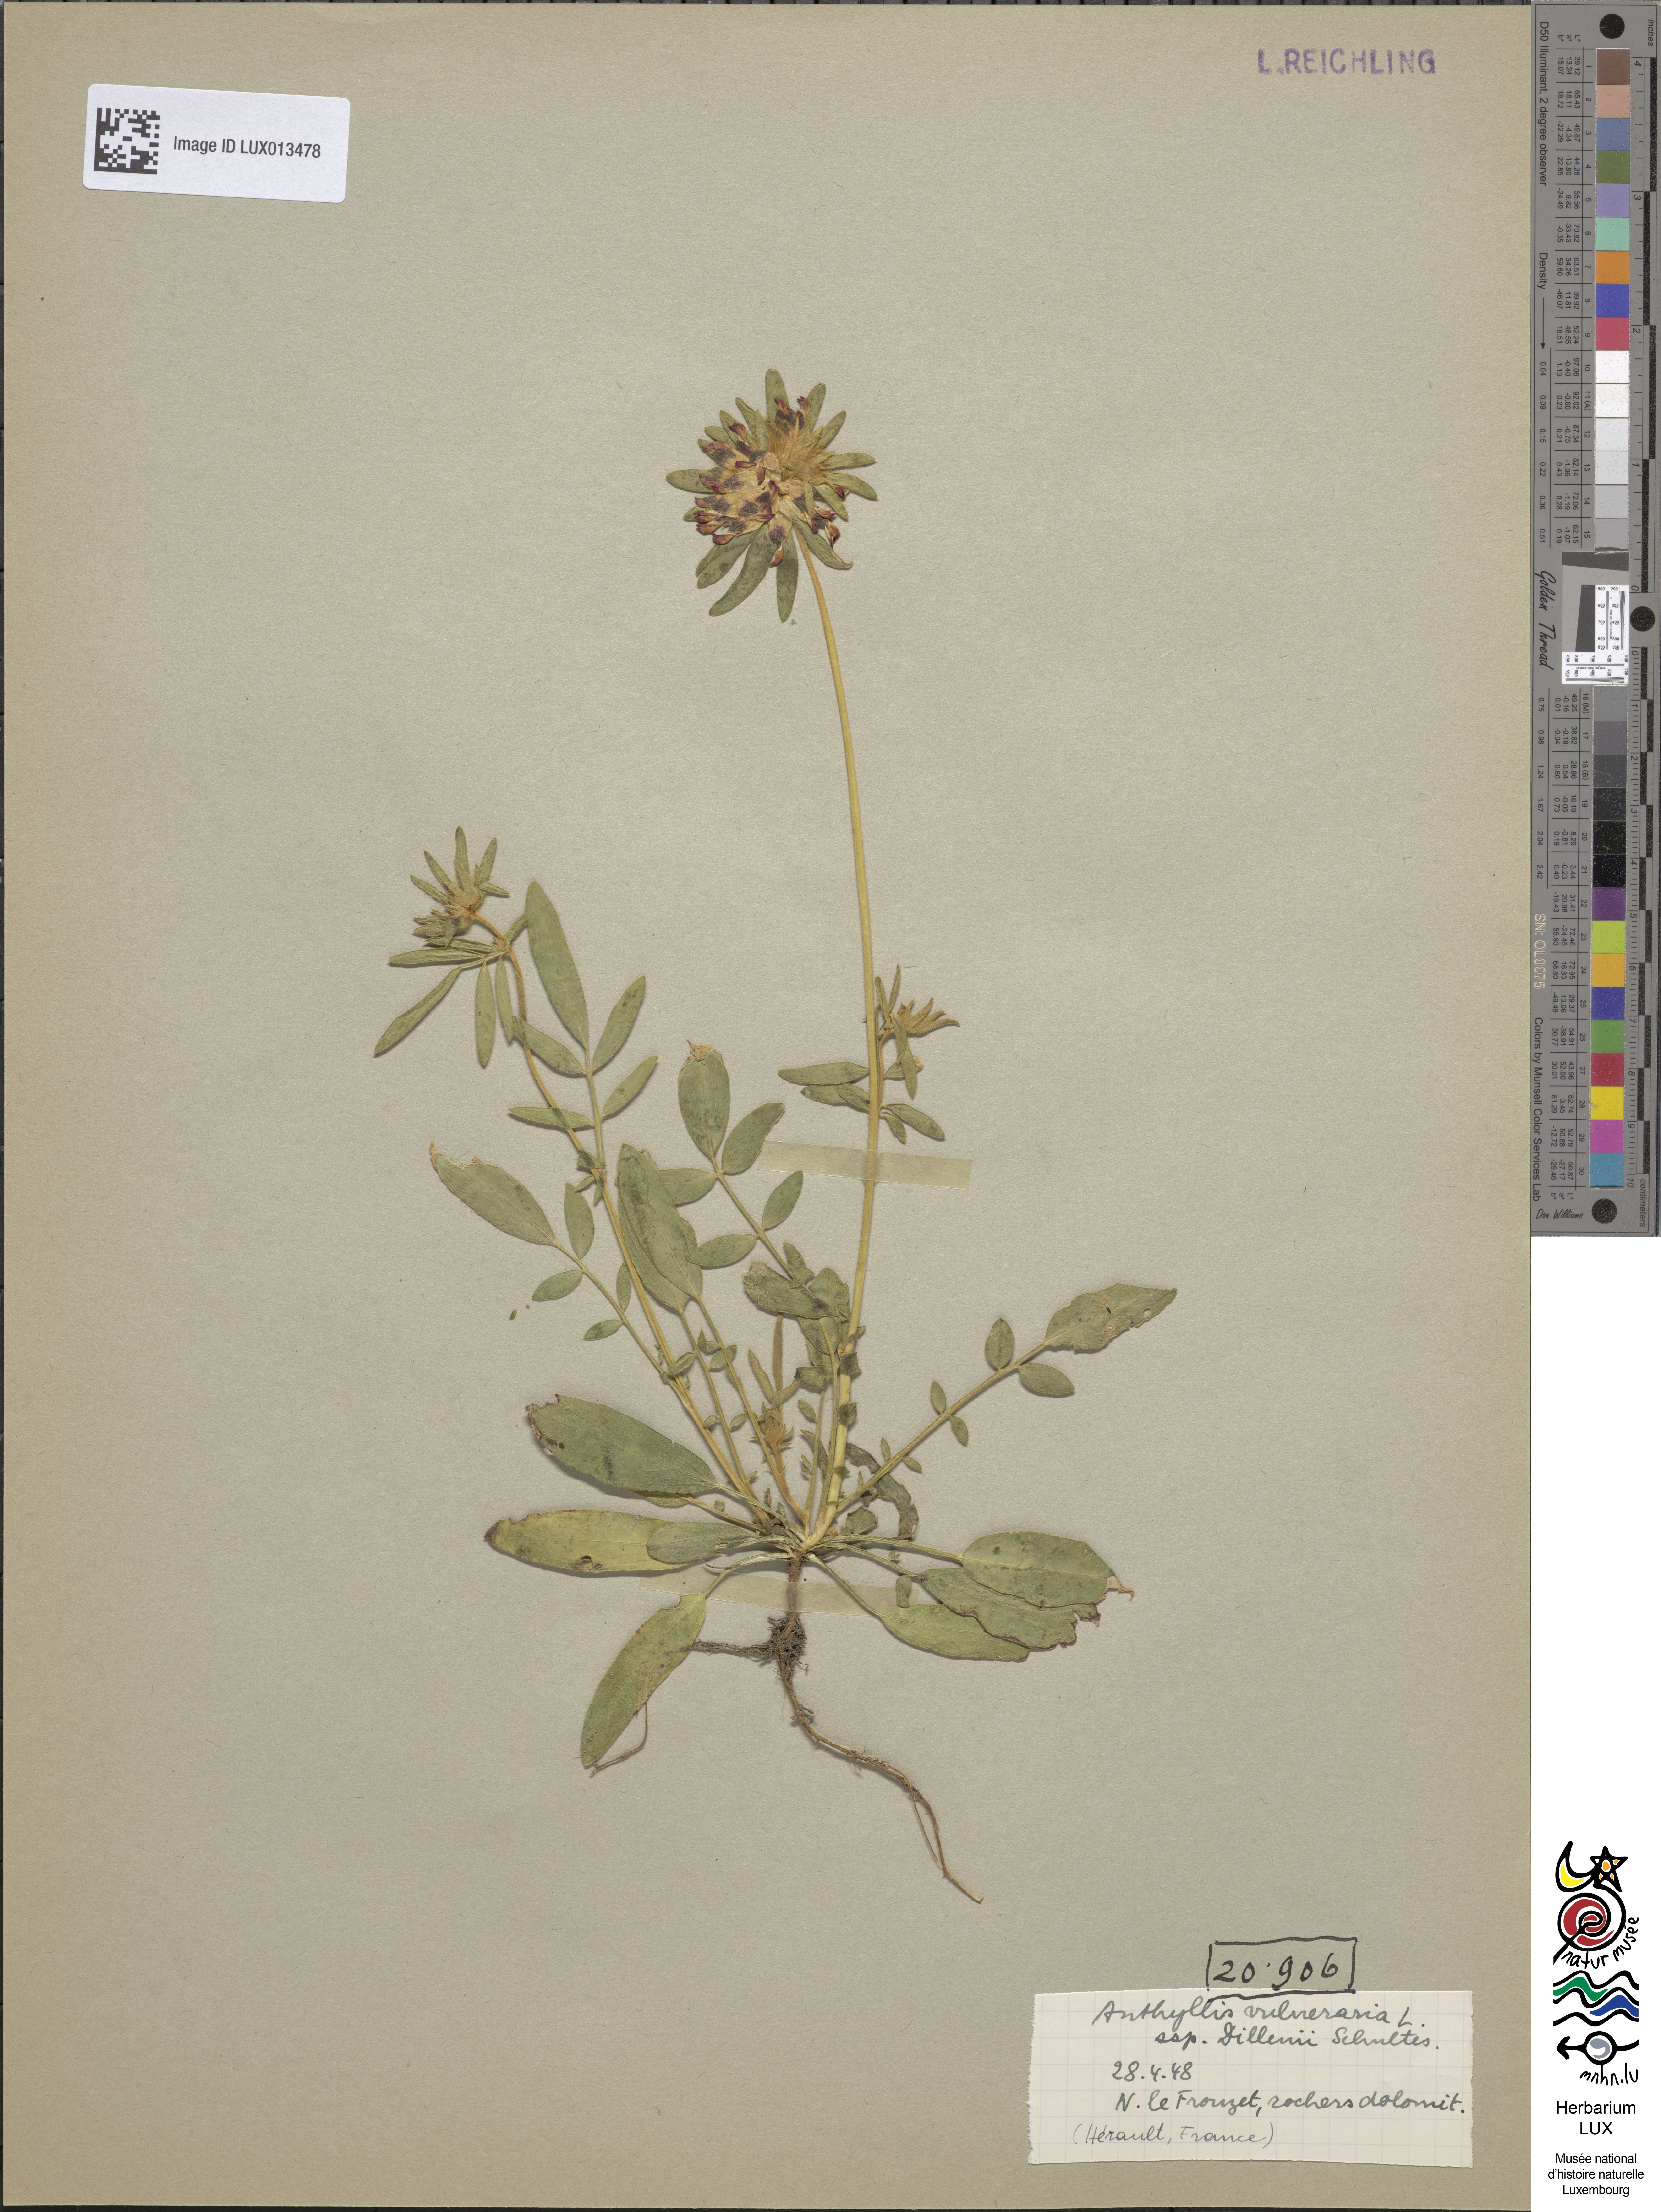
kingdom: Plantae
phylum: Tracheophyta
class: Magnoliopsida
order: Fabales
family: Fabaceae
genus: Anthyllis
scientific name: Anthyllis vulneraria
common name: Kidney vetch
